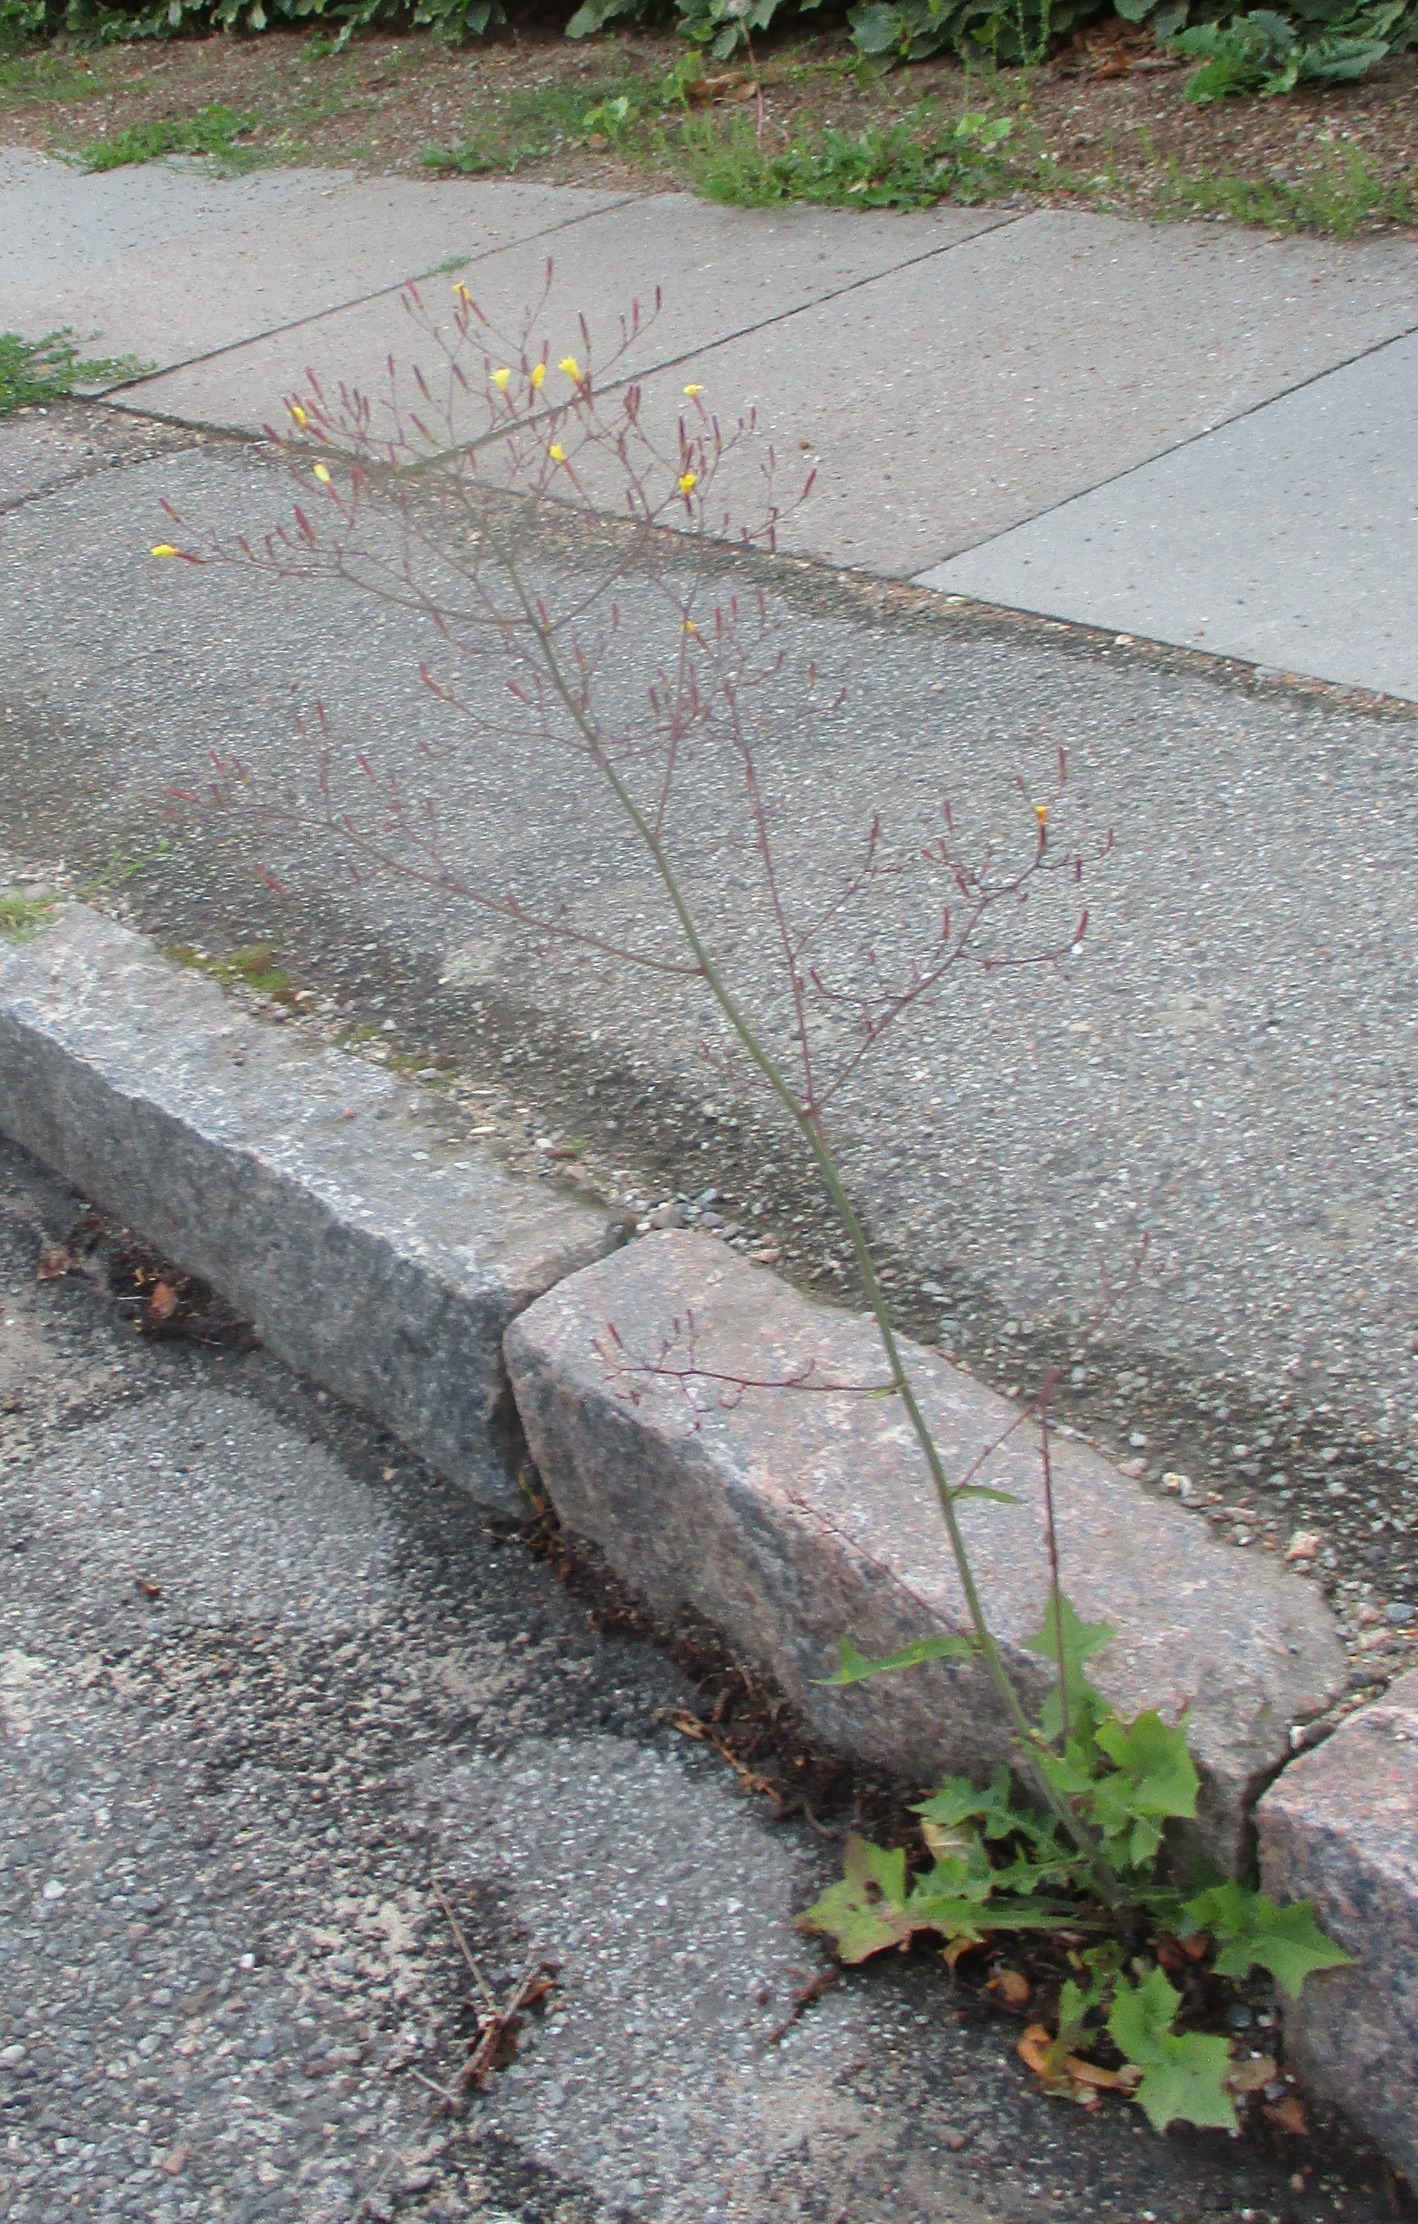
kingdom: Plantae
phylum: Tracheophyta
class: Magnoliopsida
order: Asterales
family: Asteraceae
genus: Mycelis
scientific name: Mycelis muralis
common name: Skov-salat
